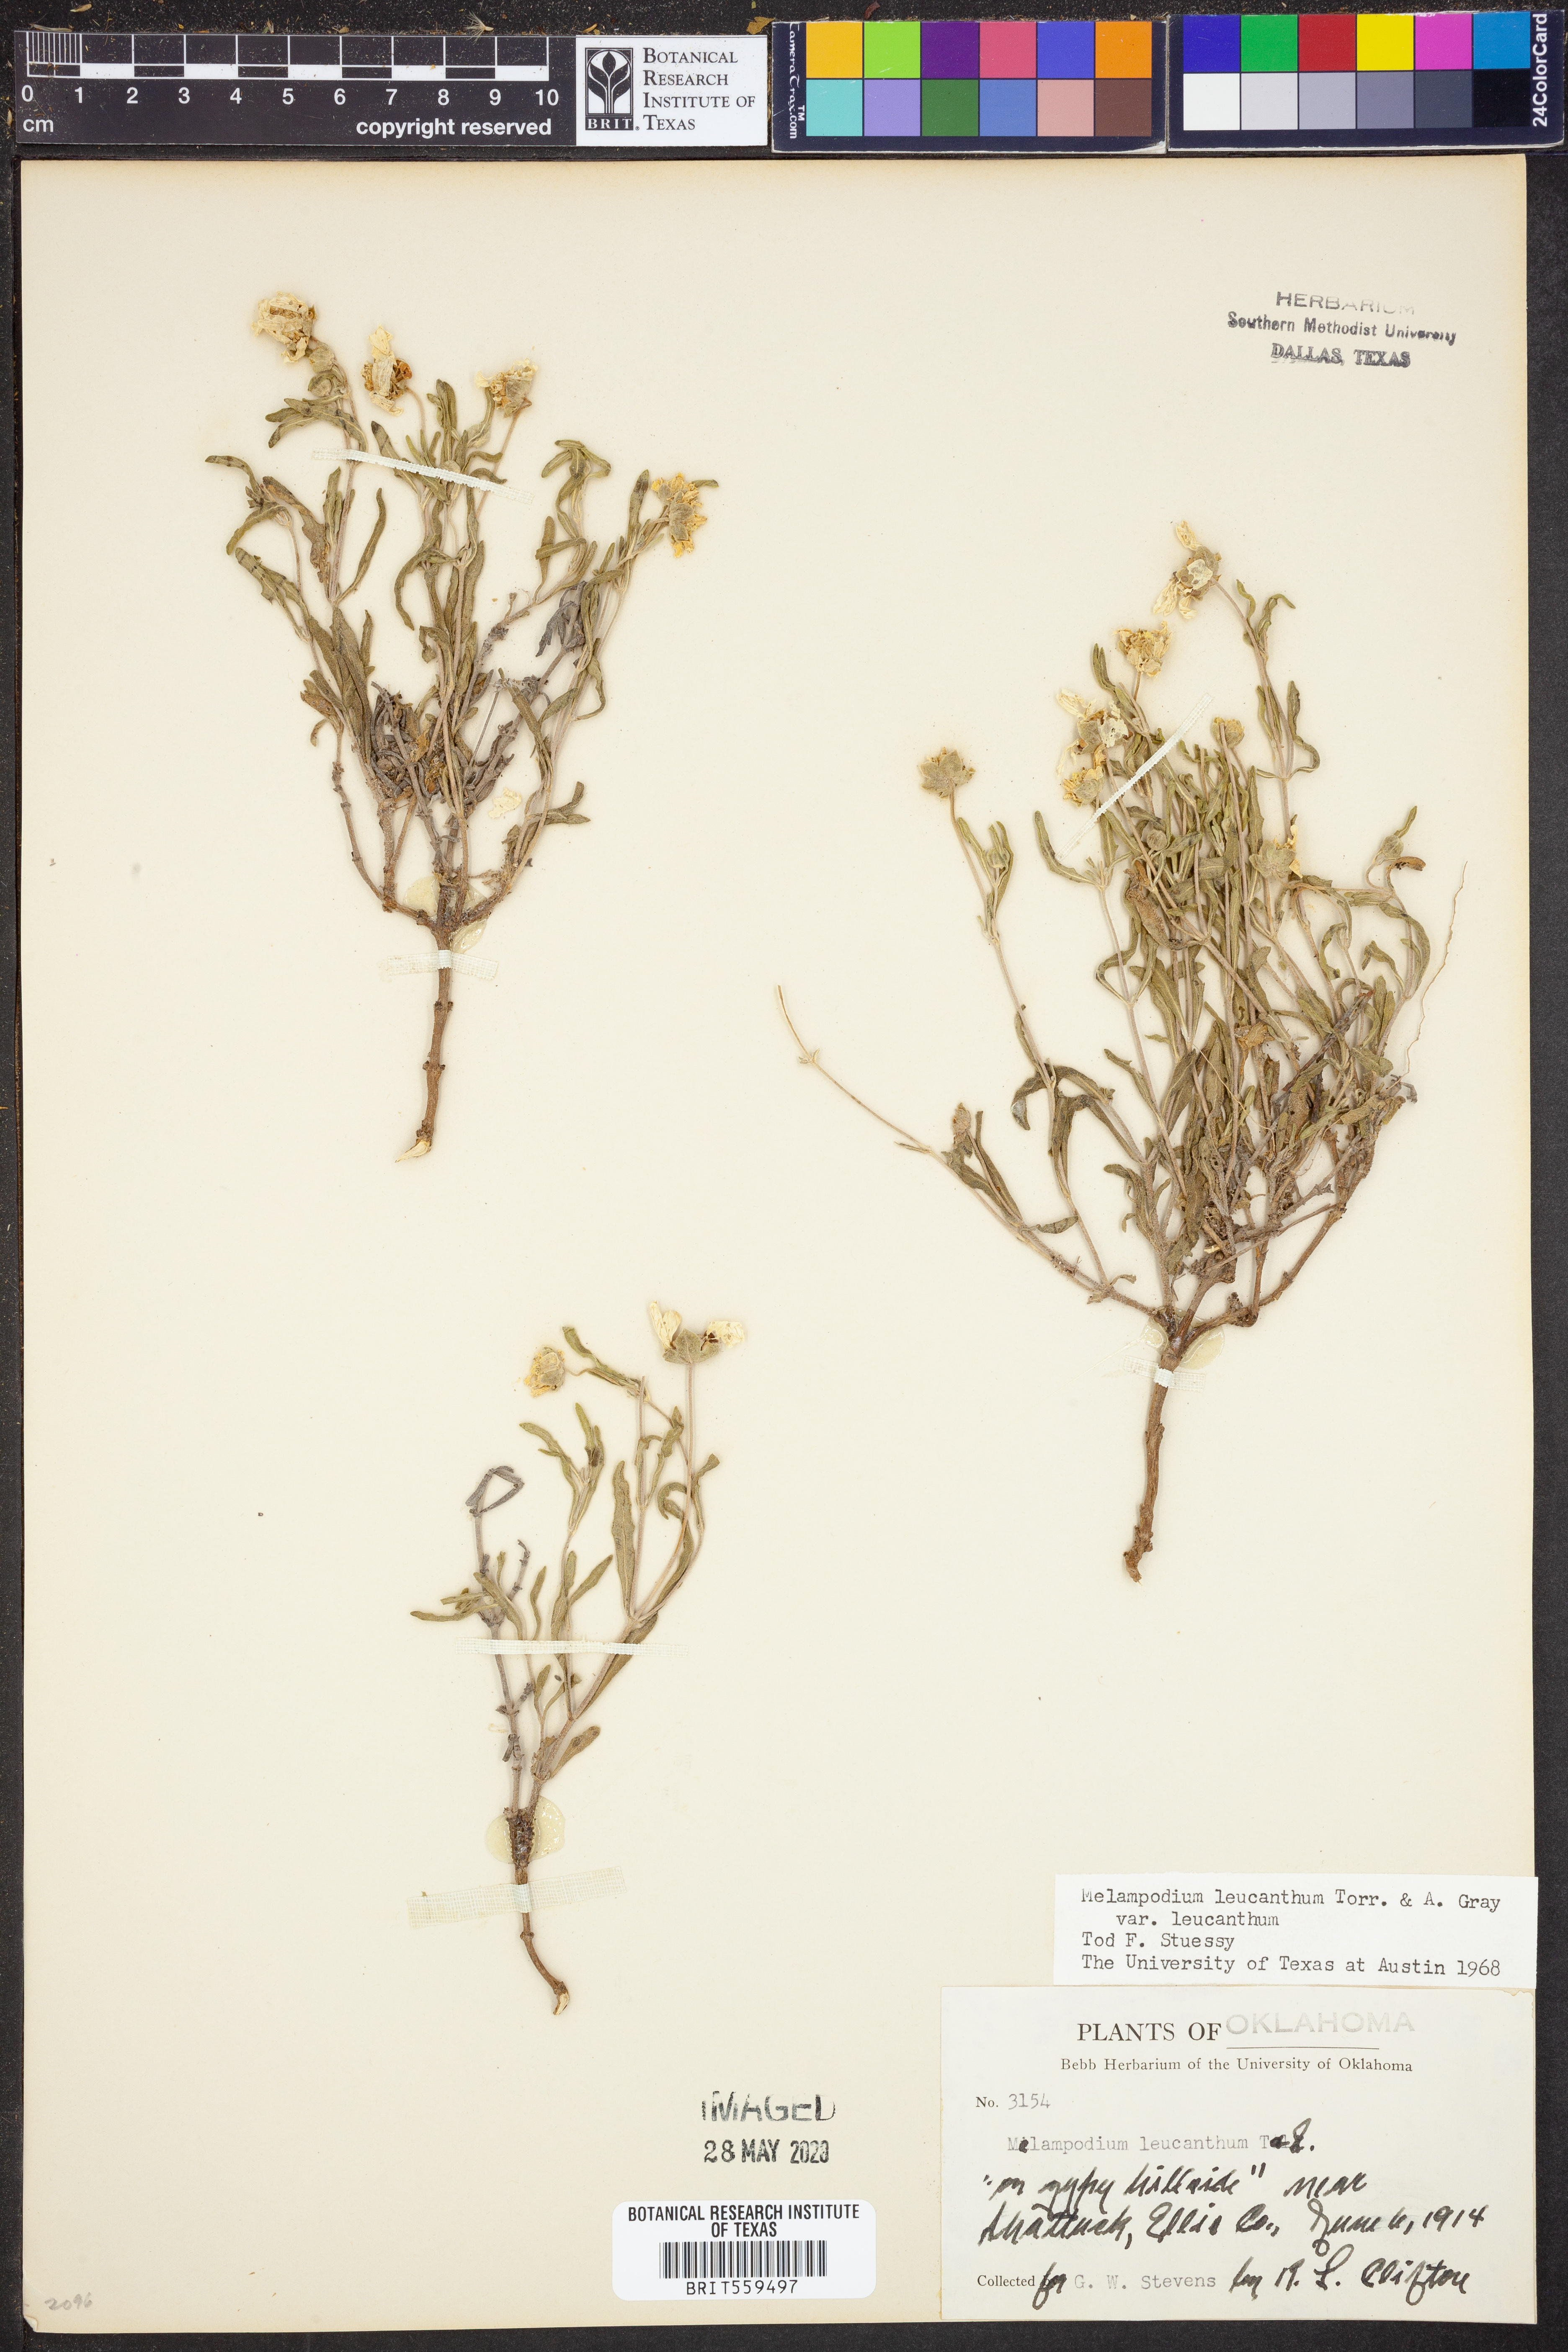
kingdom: Plantae
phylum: Tracheophyta
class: Magnoliopsida
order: Asterales
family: Asteraceae
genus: Melampodium
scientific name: Melampodium leucanthum
